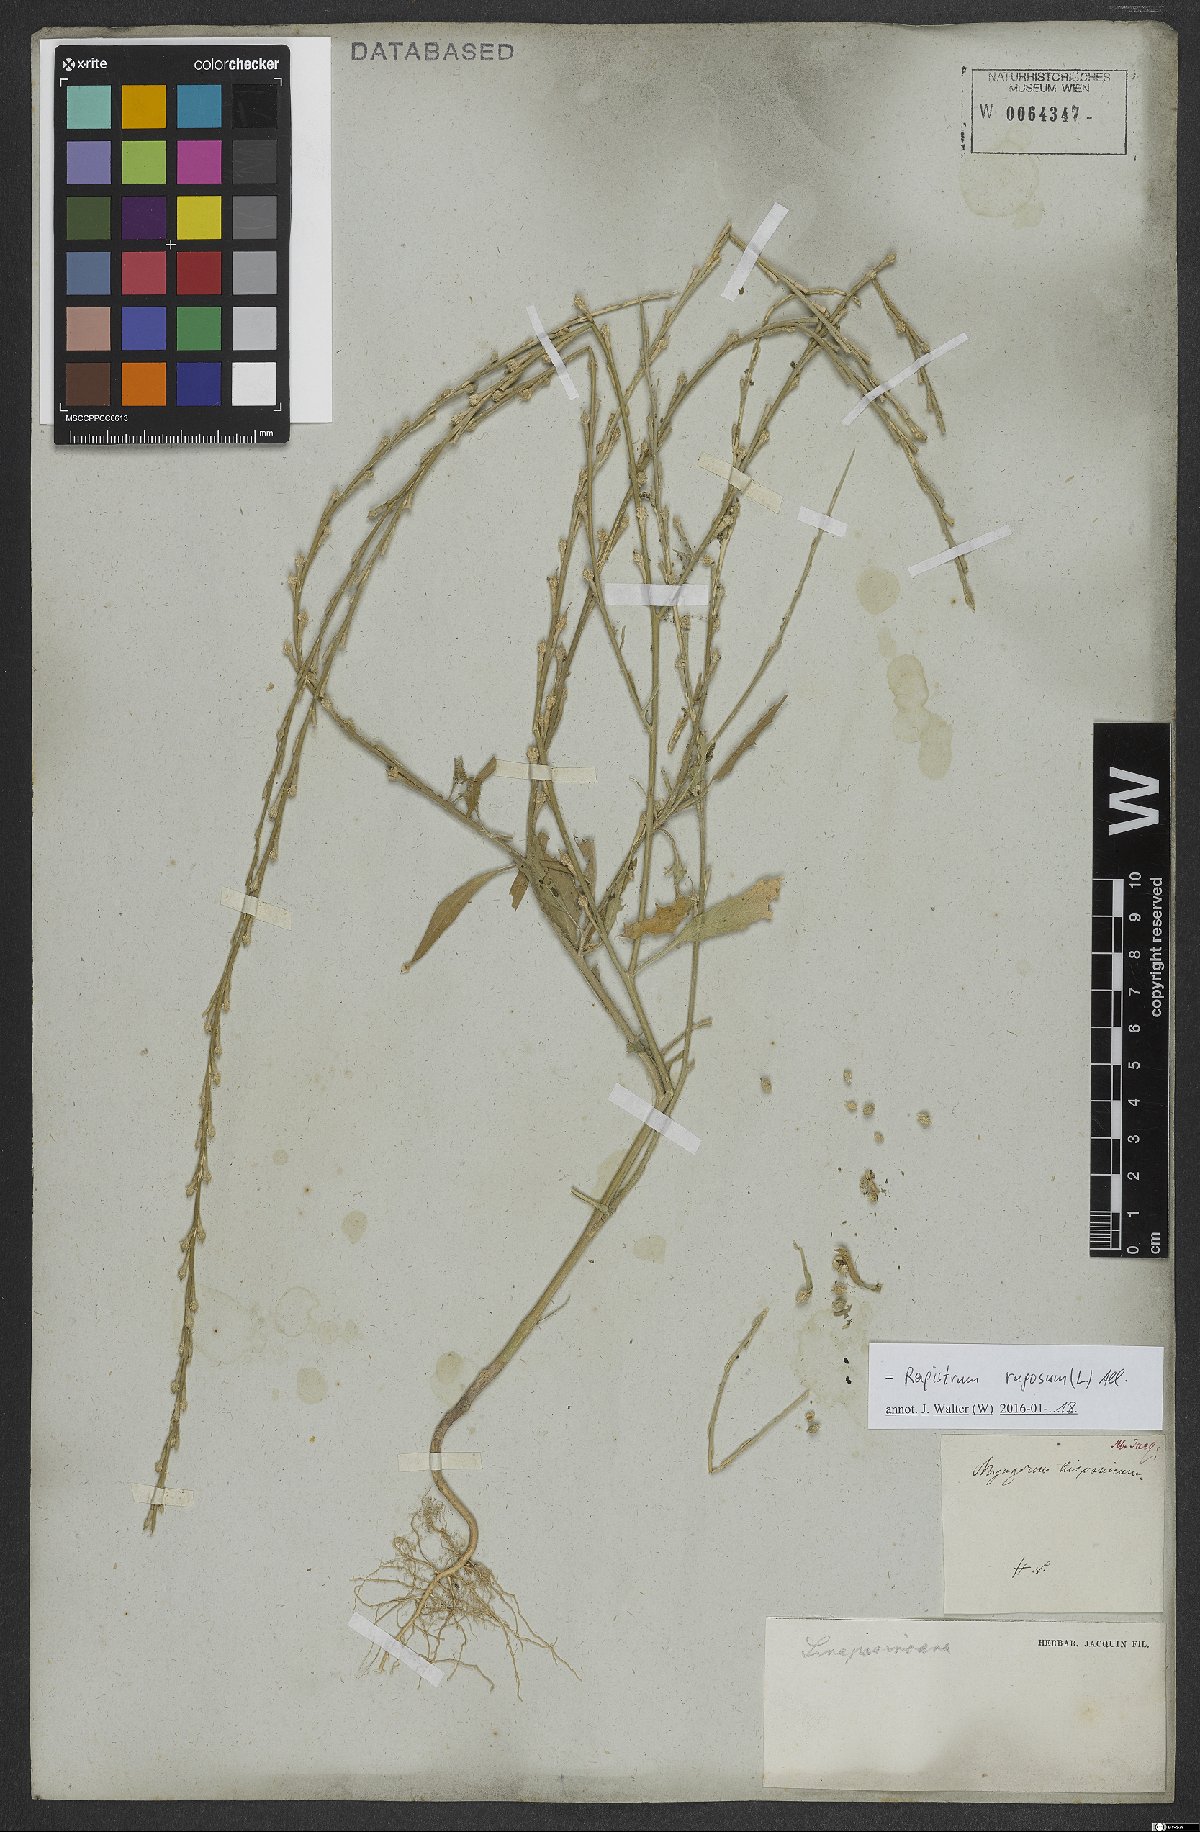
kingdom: Plantae
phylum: Tracheophyta
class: Magnoliopsida
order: Brassicales
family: Brassicaceae
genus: Rapistrum
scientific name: Rapistrum rugosum
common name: Annual bastardcabbage
